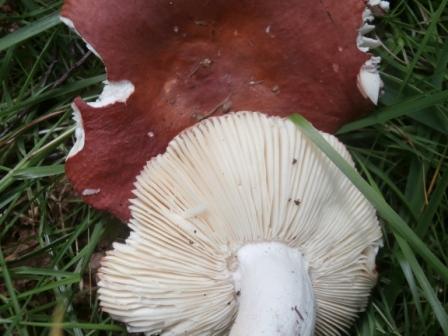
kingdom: Fungi
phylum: Basidiomycota
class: Agaricomycetes
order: Russulales
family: Russulaceae
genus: Russula
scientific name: Russula velenovskyi
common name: orangerød skørhat
